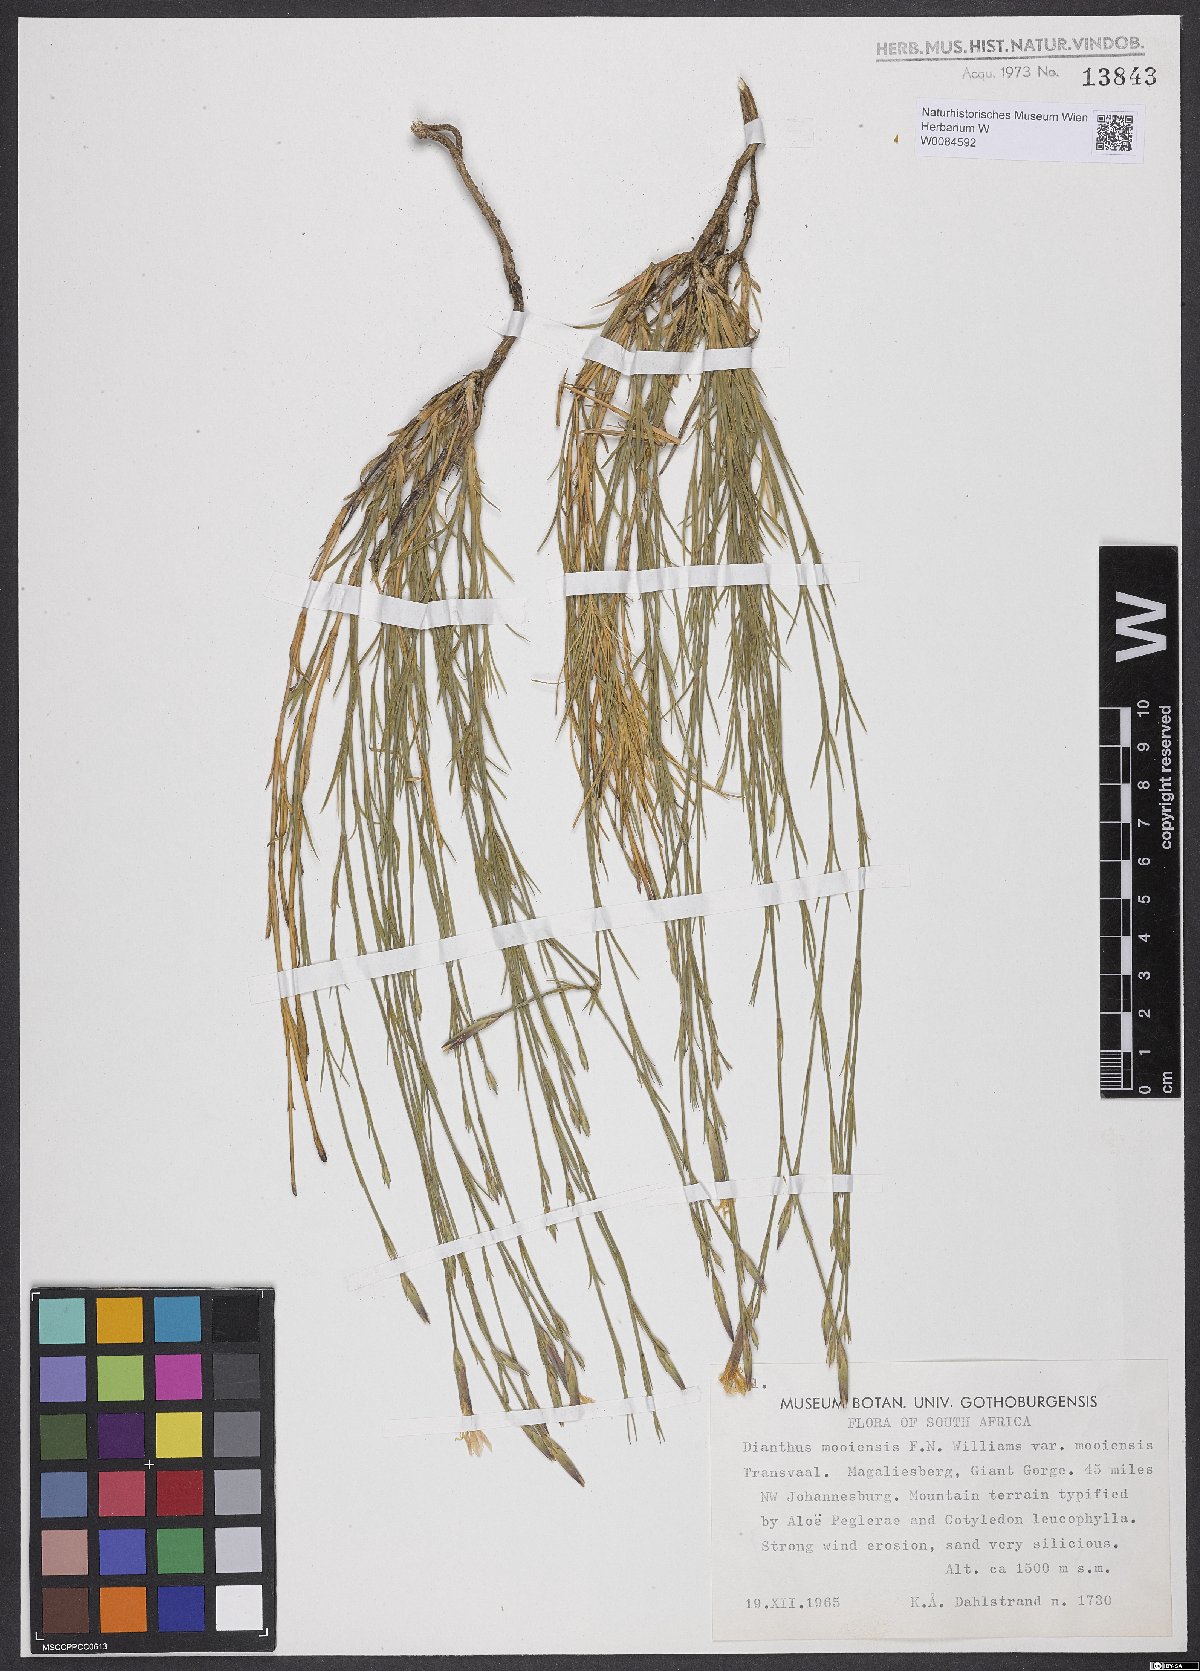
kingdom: Plantae
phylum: Tracheophyta
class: Magnoliopsida
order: Caryophyllales
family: Caryophyllaceae
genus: Dianthus
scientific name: Dianthus mooiensis
